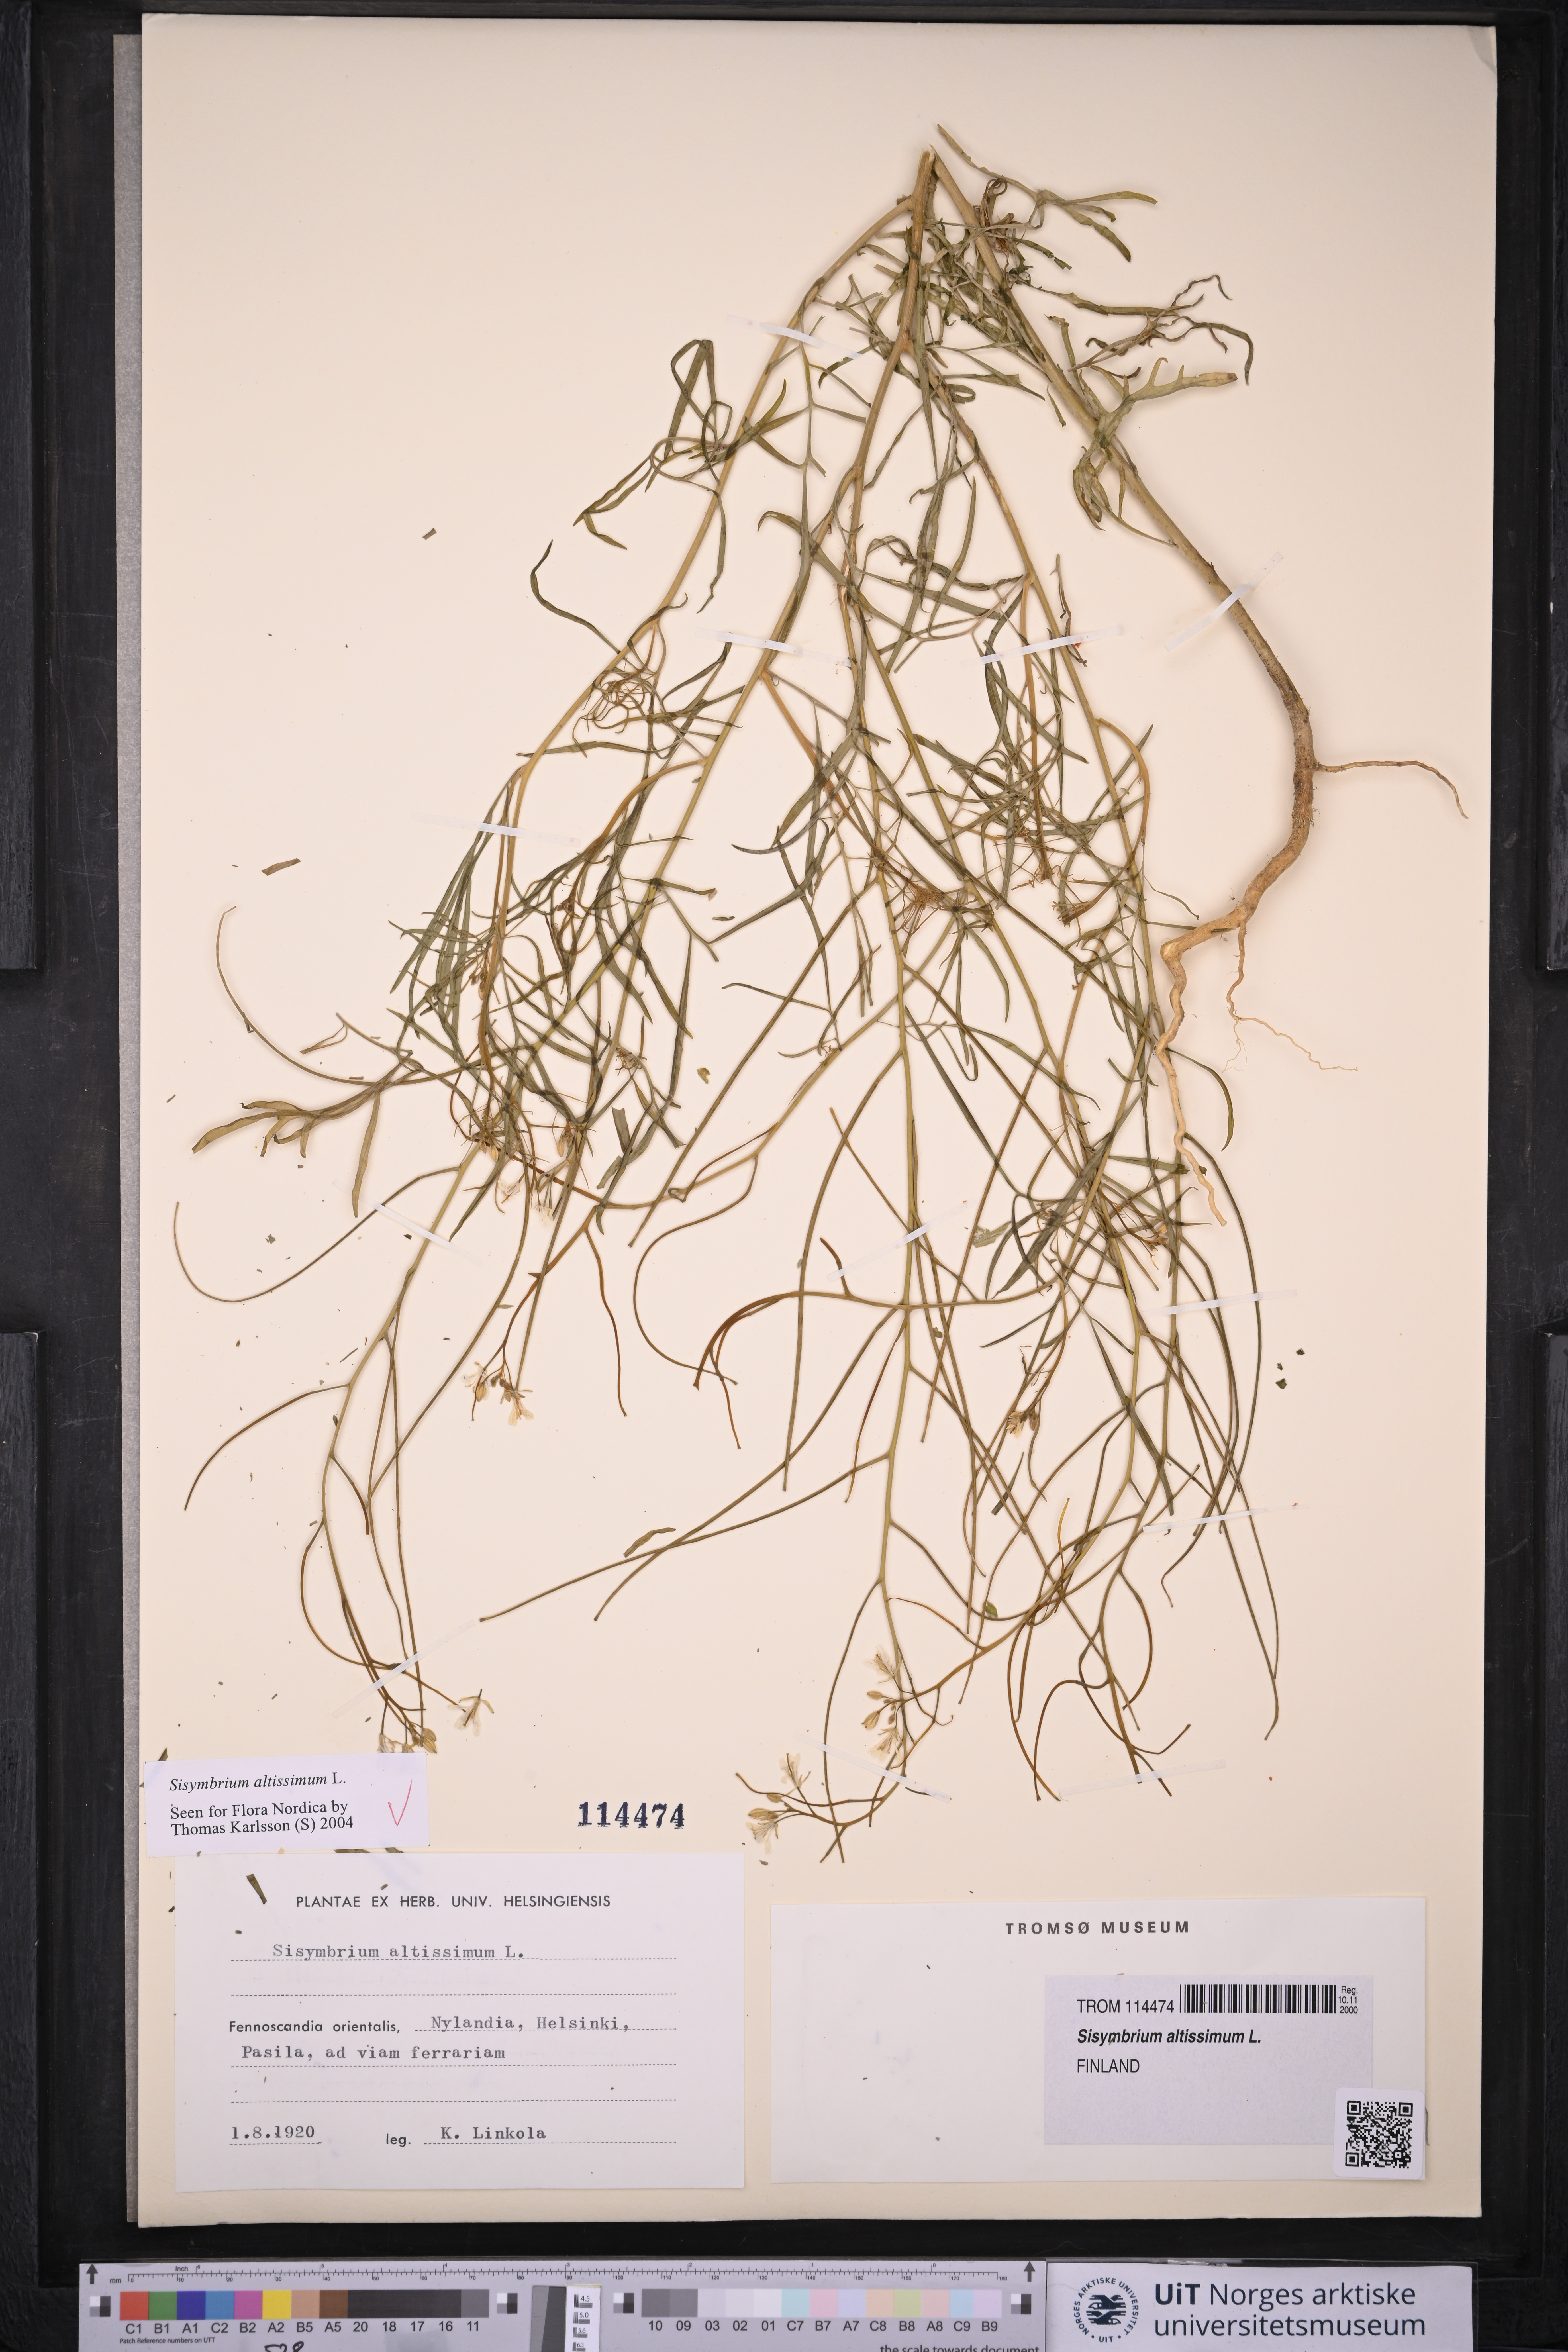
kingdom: Plantae
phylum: Tracheophyta
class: Magnoliopsida
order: Brassicales
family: Brassicaceae
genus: Sisymbrium
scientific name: Sisymbrium altissimum
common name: Tall rocket
